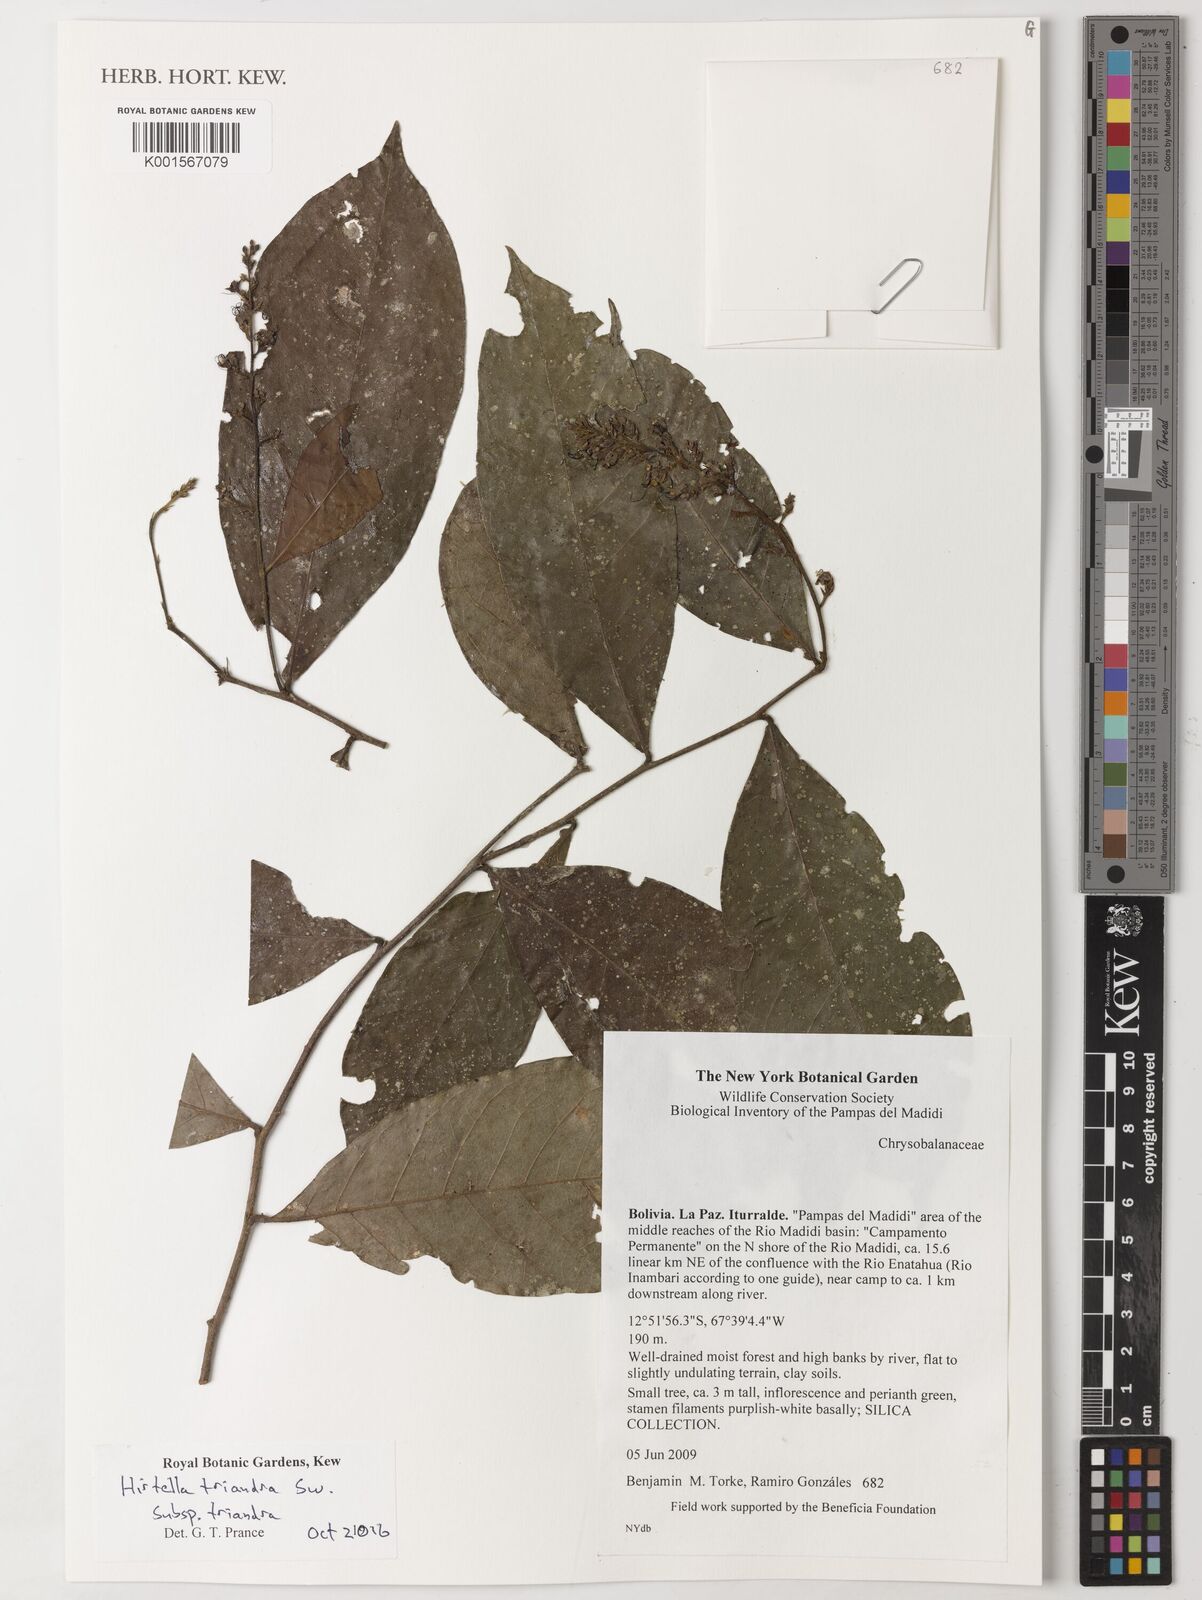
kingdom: Plantae
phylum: Tracheophyta
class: Magnoliopsida
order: Malpighiales
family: Chrysobalanaceae
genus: Hirtella
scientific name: Hirtella triandra
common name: Hairy plum
